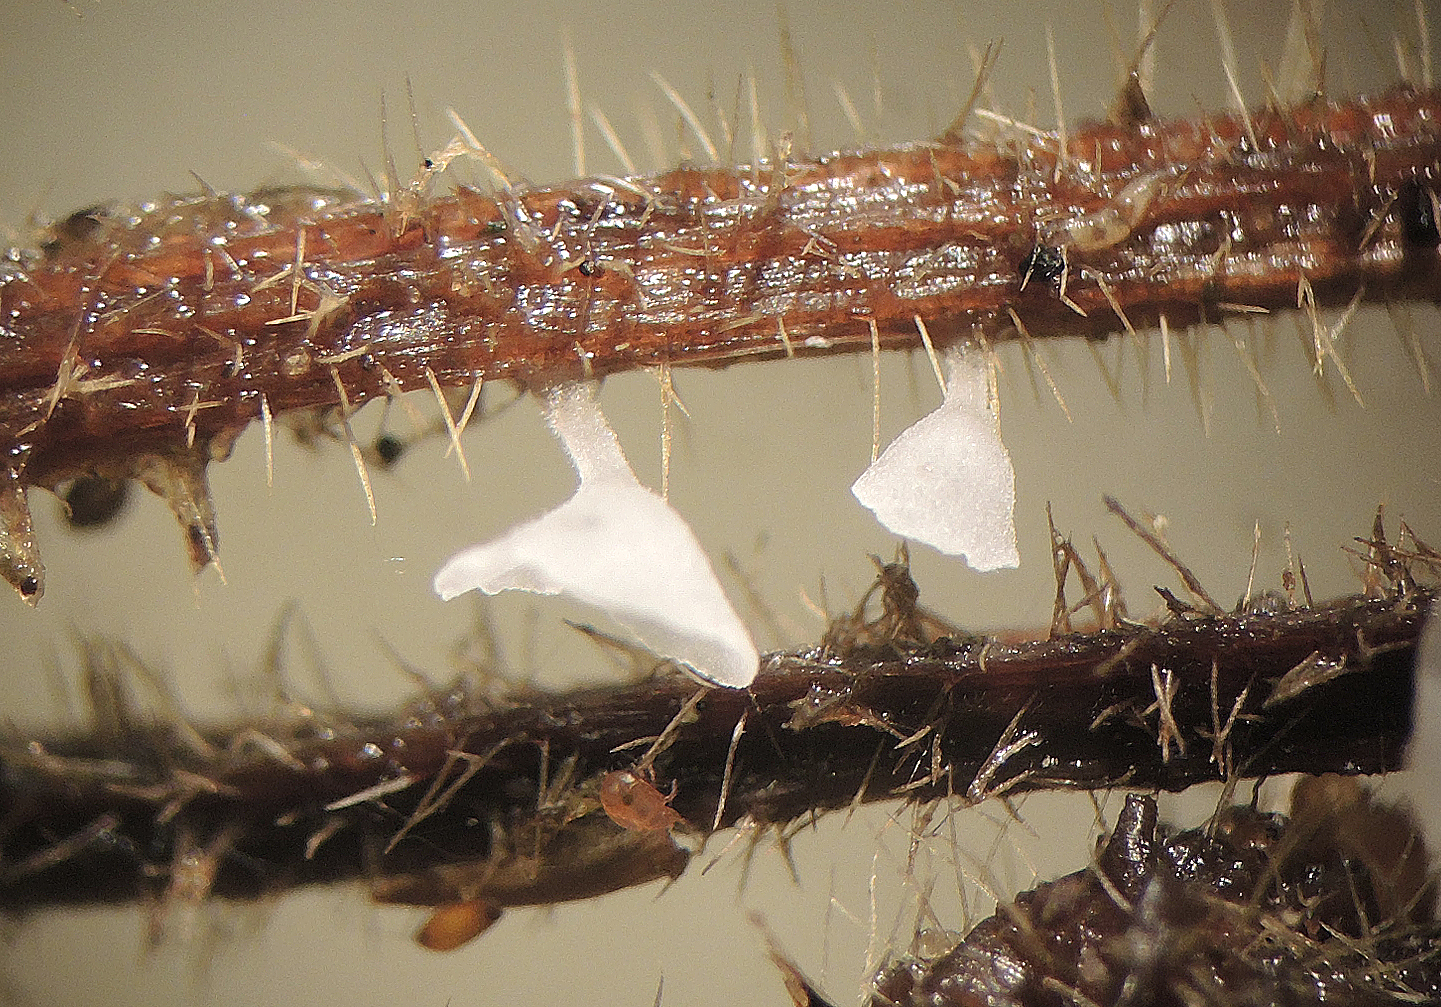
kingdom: Fungi
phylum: Basidiomycota
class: Agaricomycetes
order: Agaricales
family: Marasmiaceae
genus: Calyptella
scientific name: Calyptella capula
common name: hvidlig nældehue
